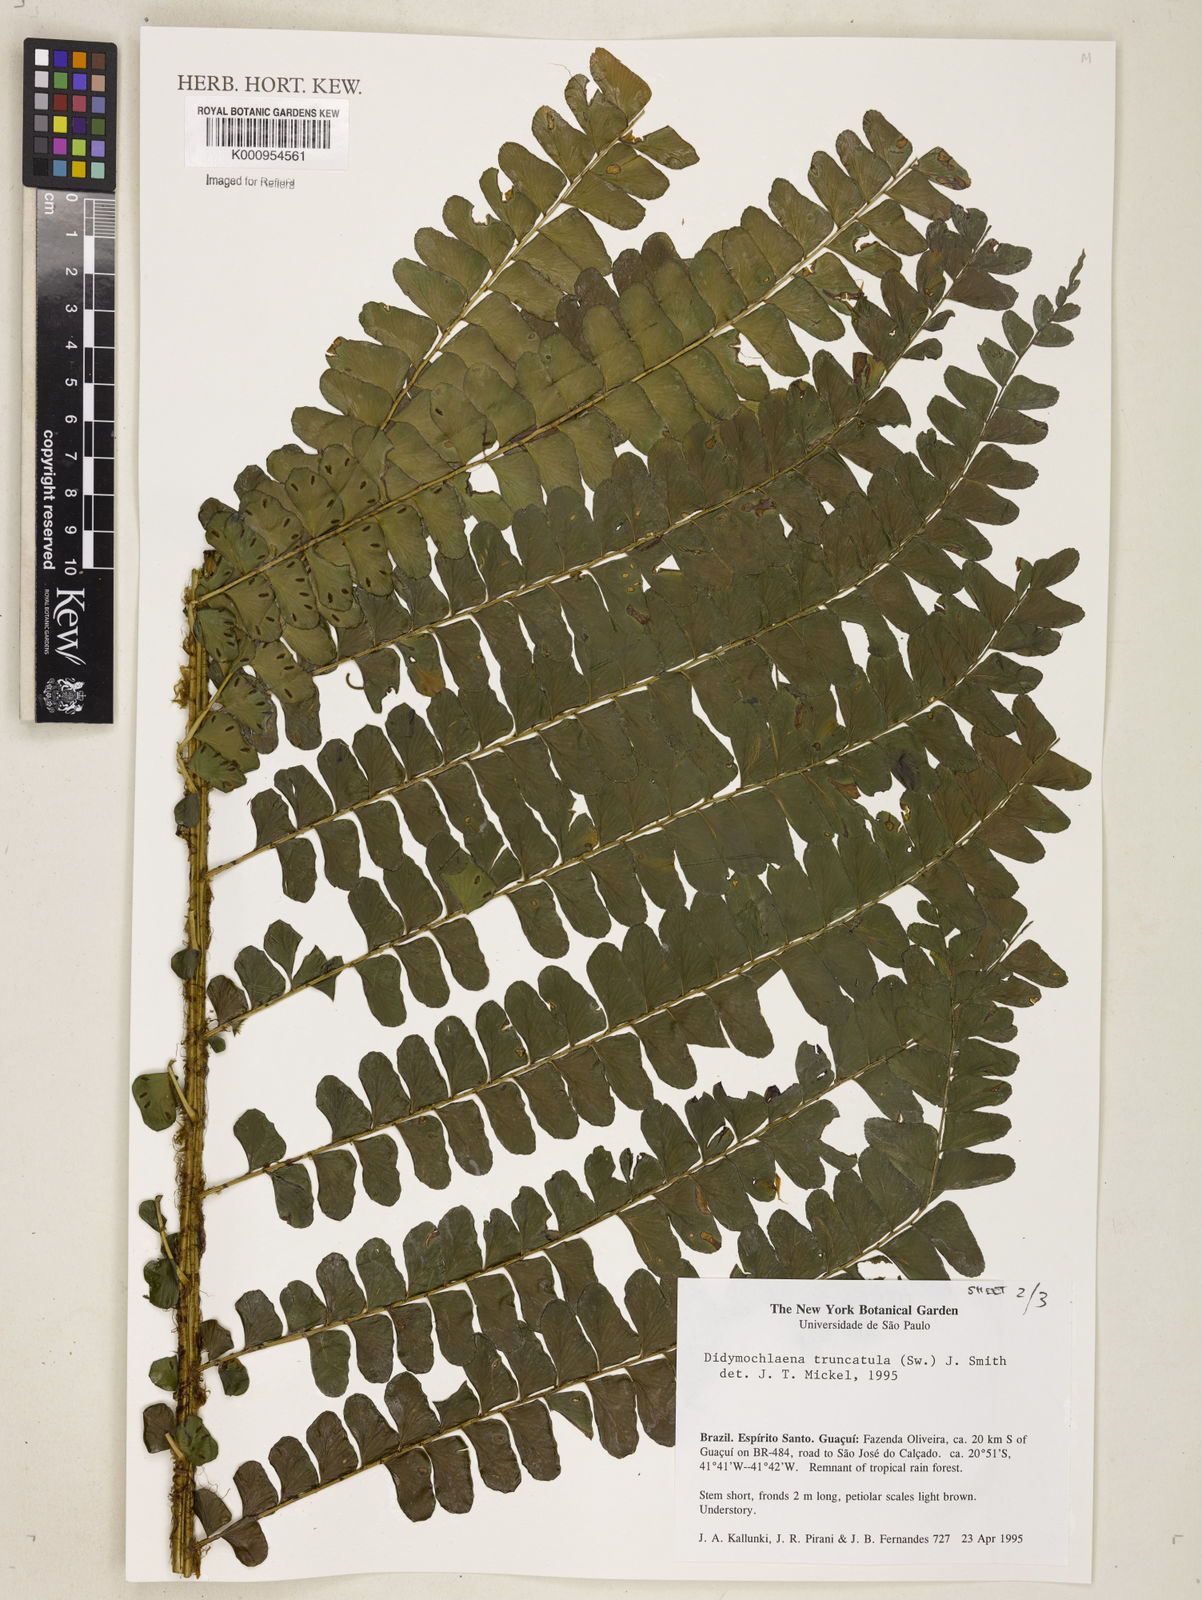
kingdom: Plantae
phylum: Tracheophyta
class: Polypodiopsida
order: Polypodiales
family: Didymochlaenaceae
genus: Didymochlaena
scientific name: Didymochlaena truncatula
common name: Mahogany fern
